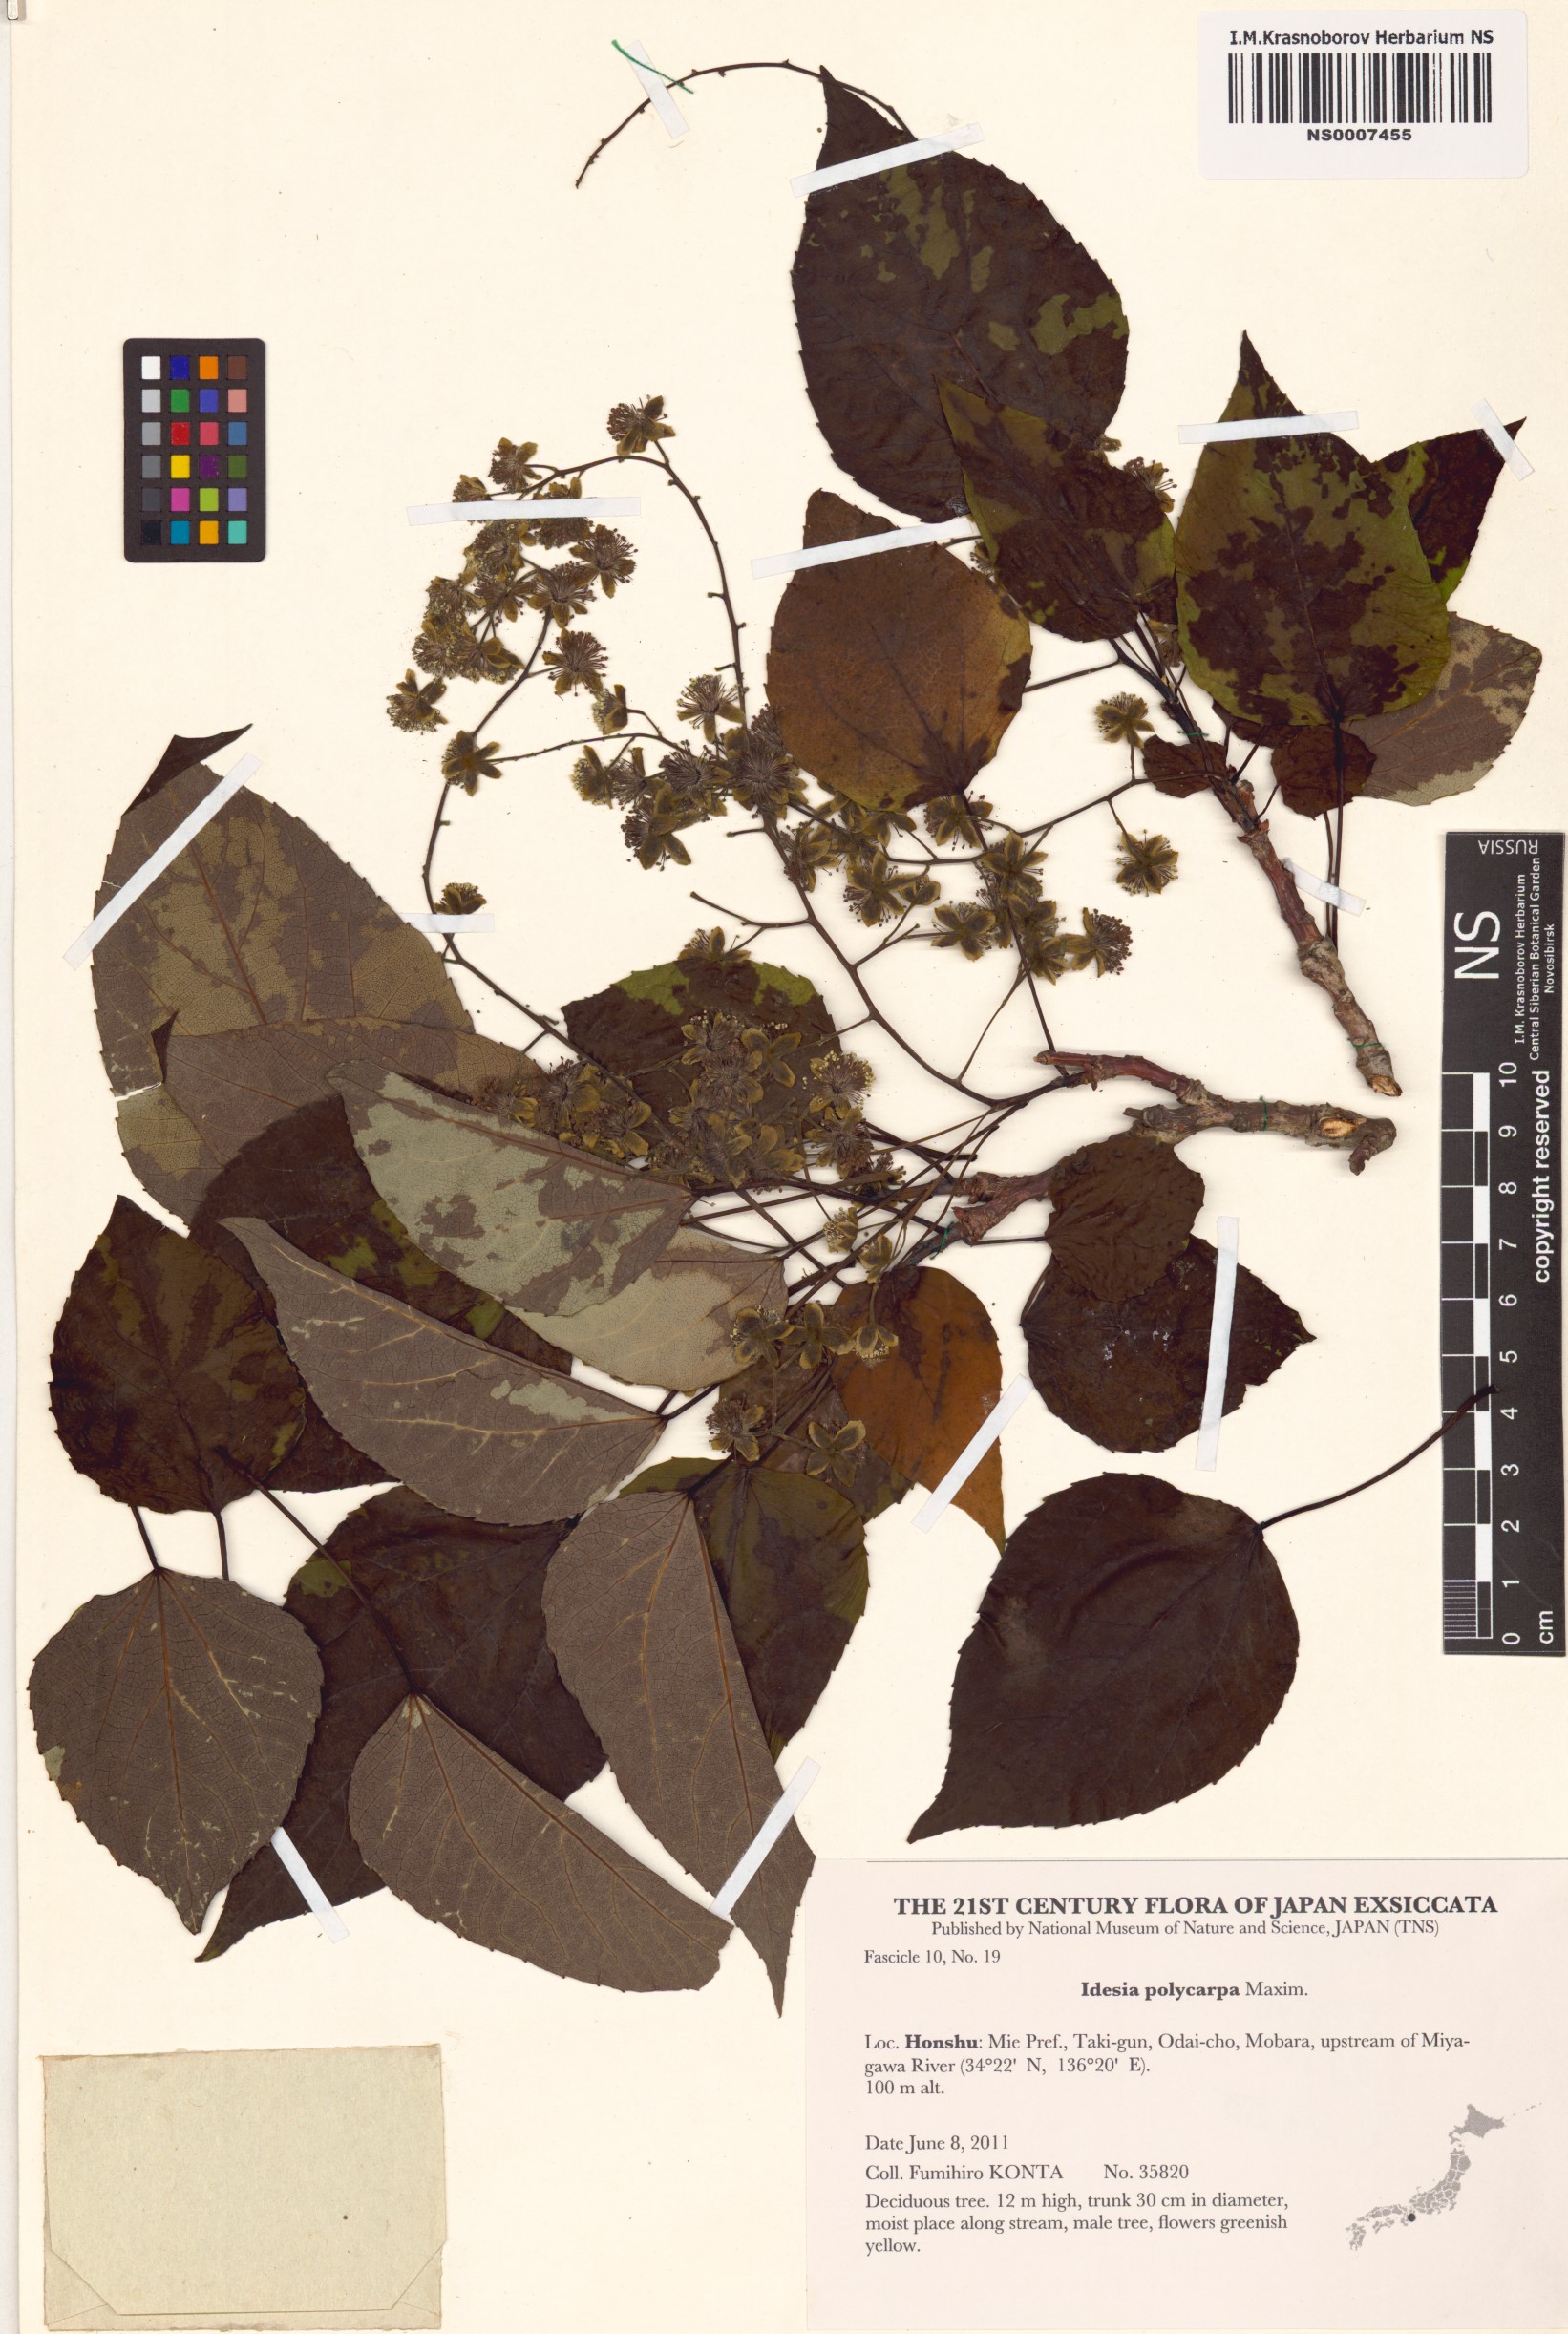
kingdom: Plantae
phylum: Tracheophyta
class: Magnoliopsida
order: Malpighiales
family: Salicaceae
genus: Idesia
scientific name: Idesia polycarpa
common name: Idesia tree
